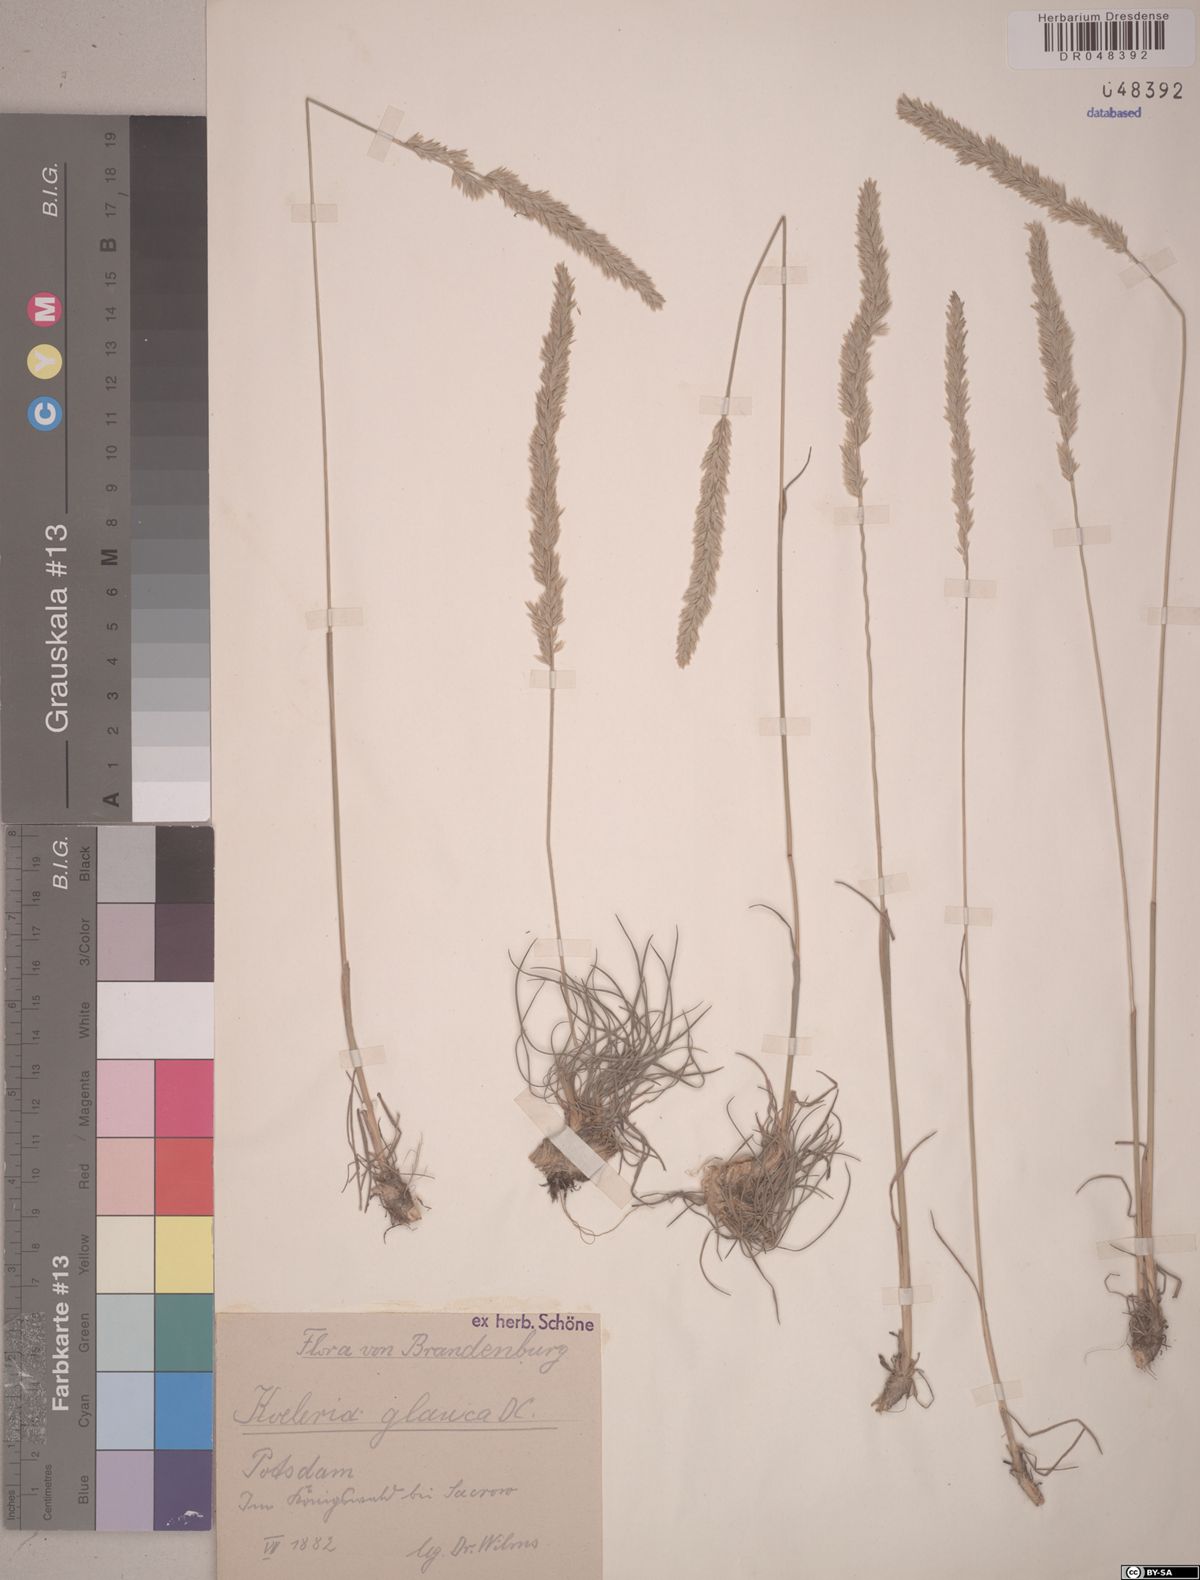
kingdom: Plantae
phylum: Tracheophyta
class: Liliopsida
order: Poales
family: Poaceae
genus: Koeleria
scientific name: Koeleria glauca
